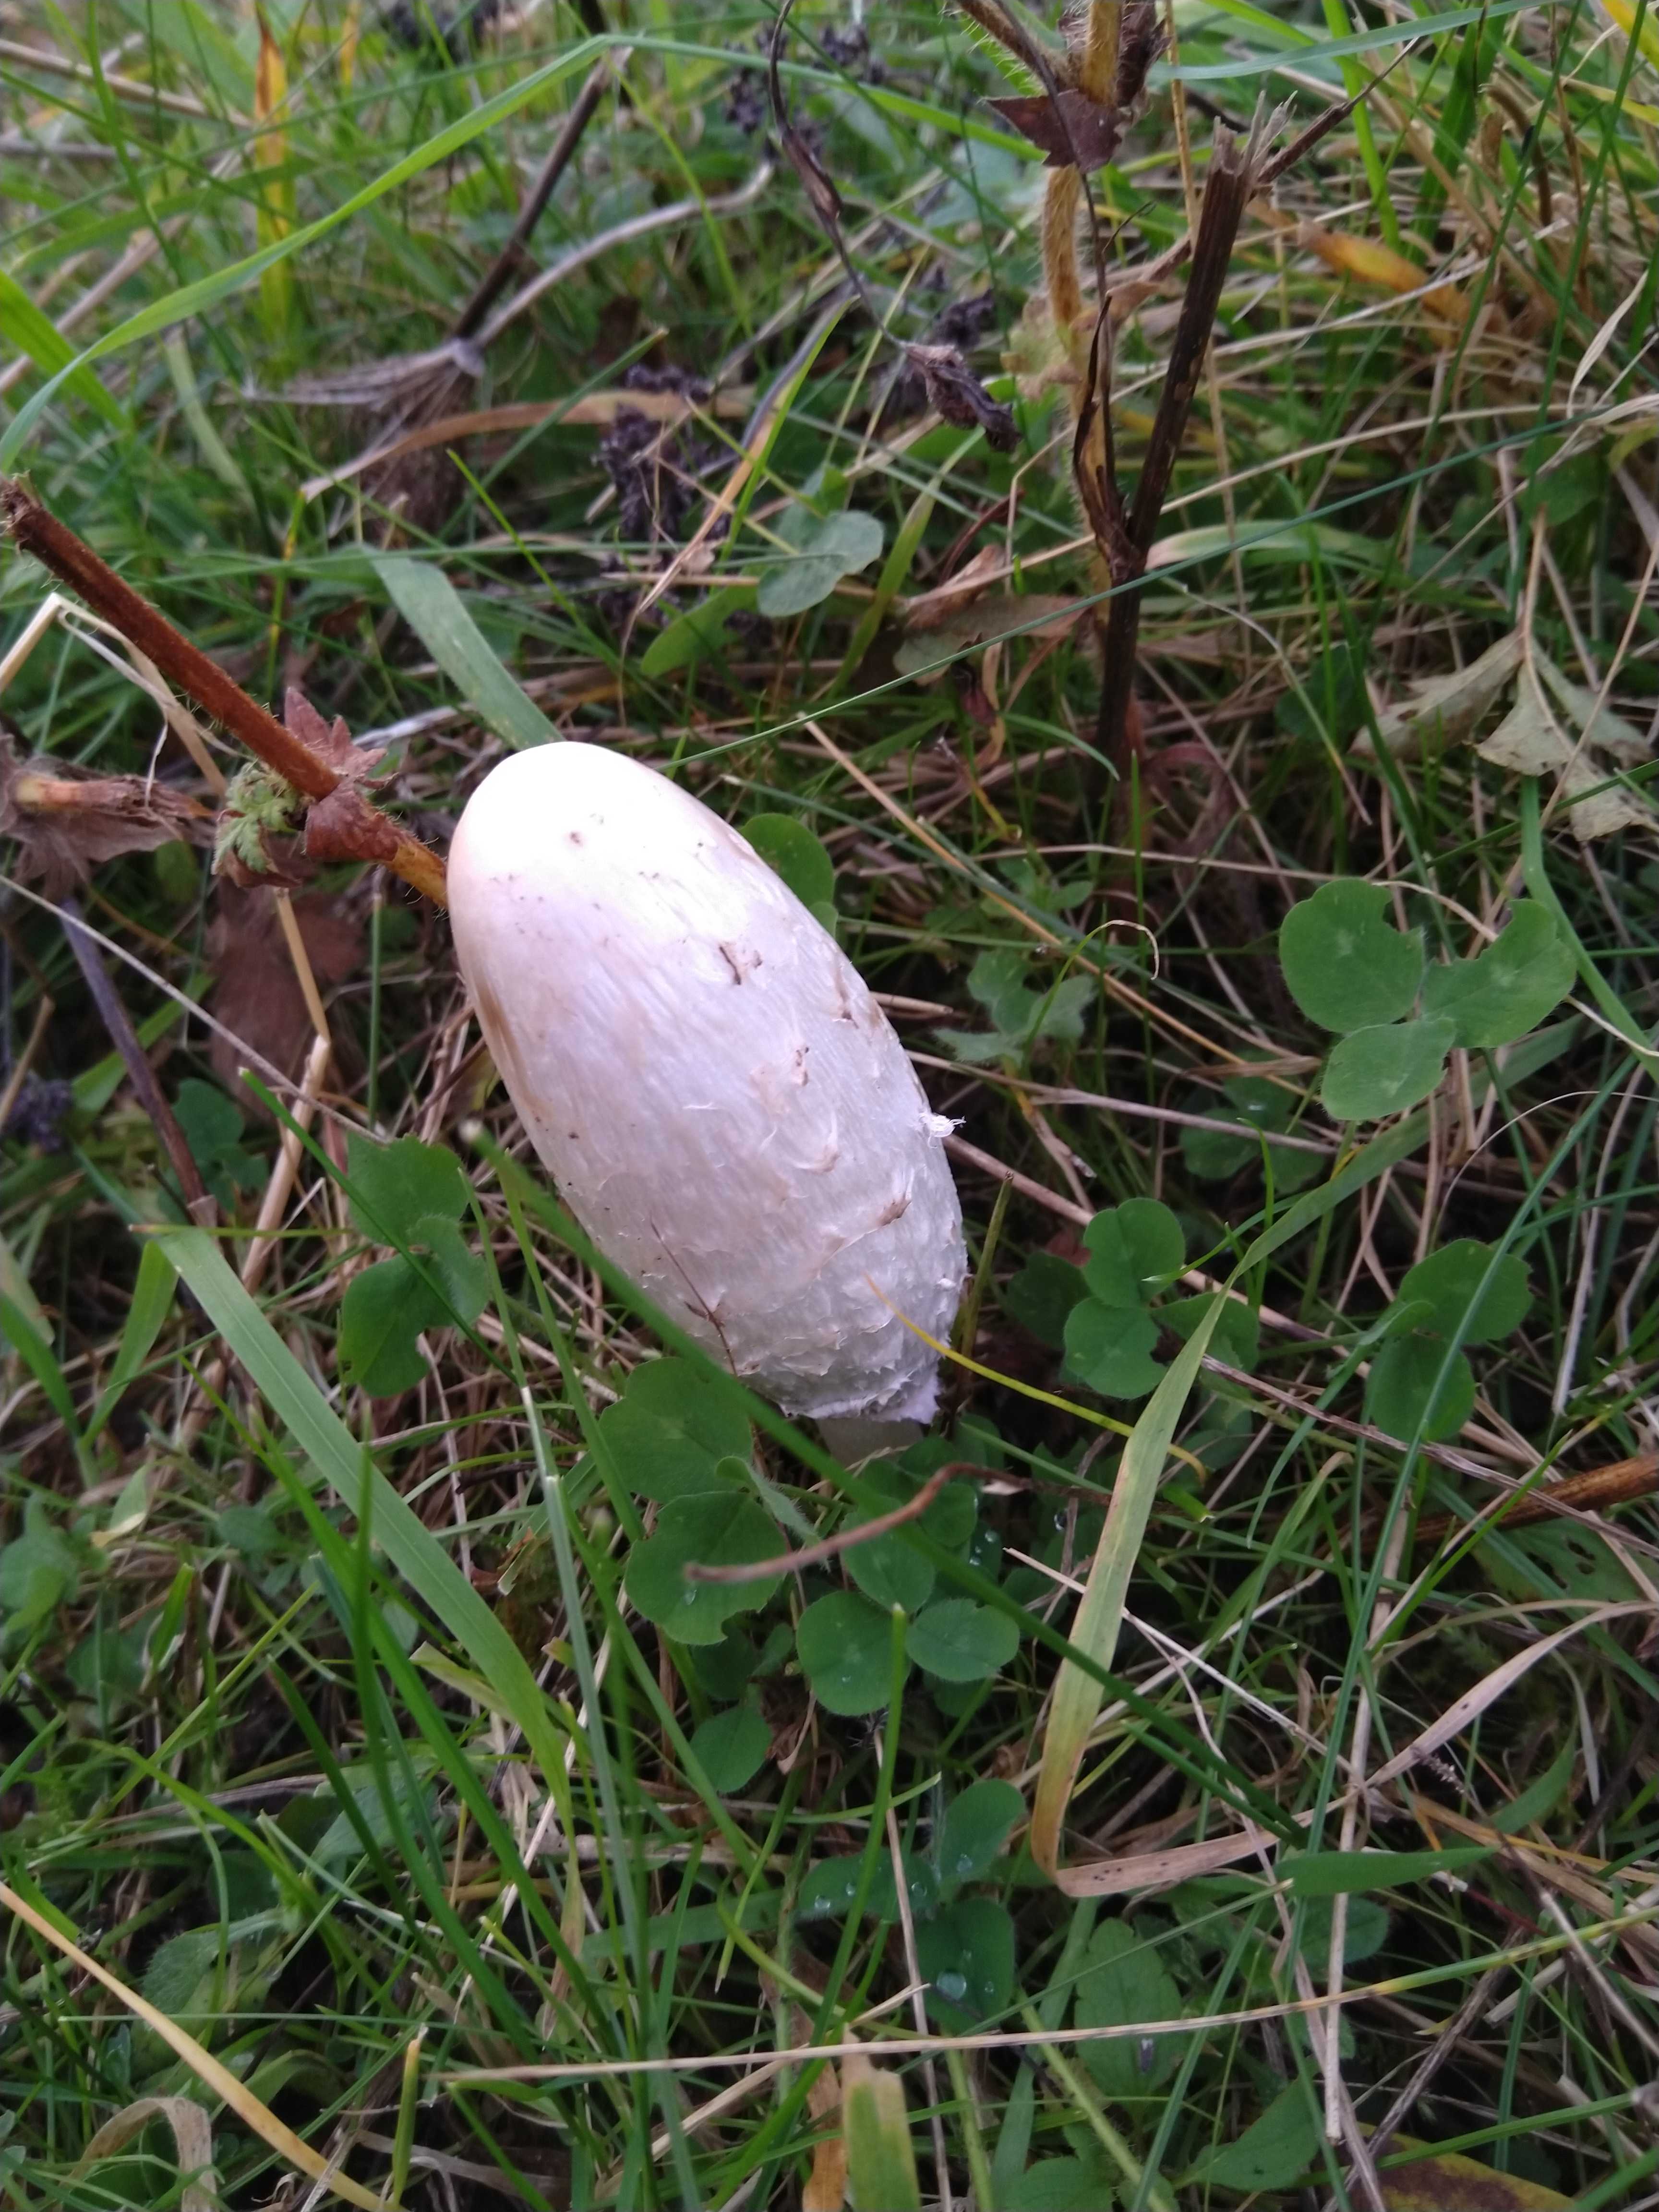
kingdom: Fungi
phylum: Basidiomycota
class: Agaricomycetes
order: Agaricales
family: Agaricaceae
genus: Coprinus
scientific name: Coprinus comatus
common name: stor parykhat
